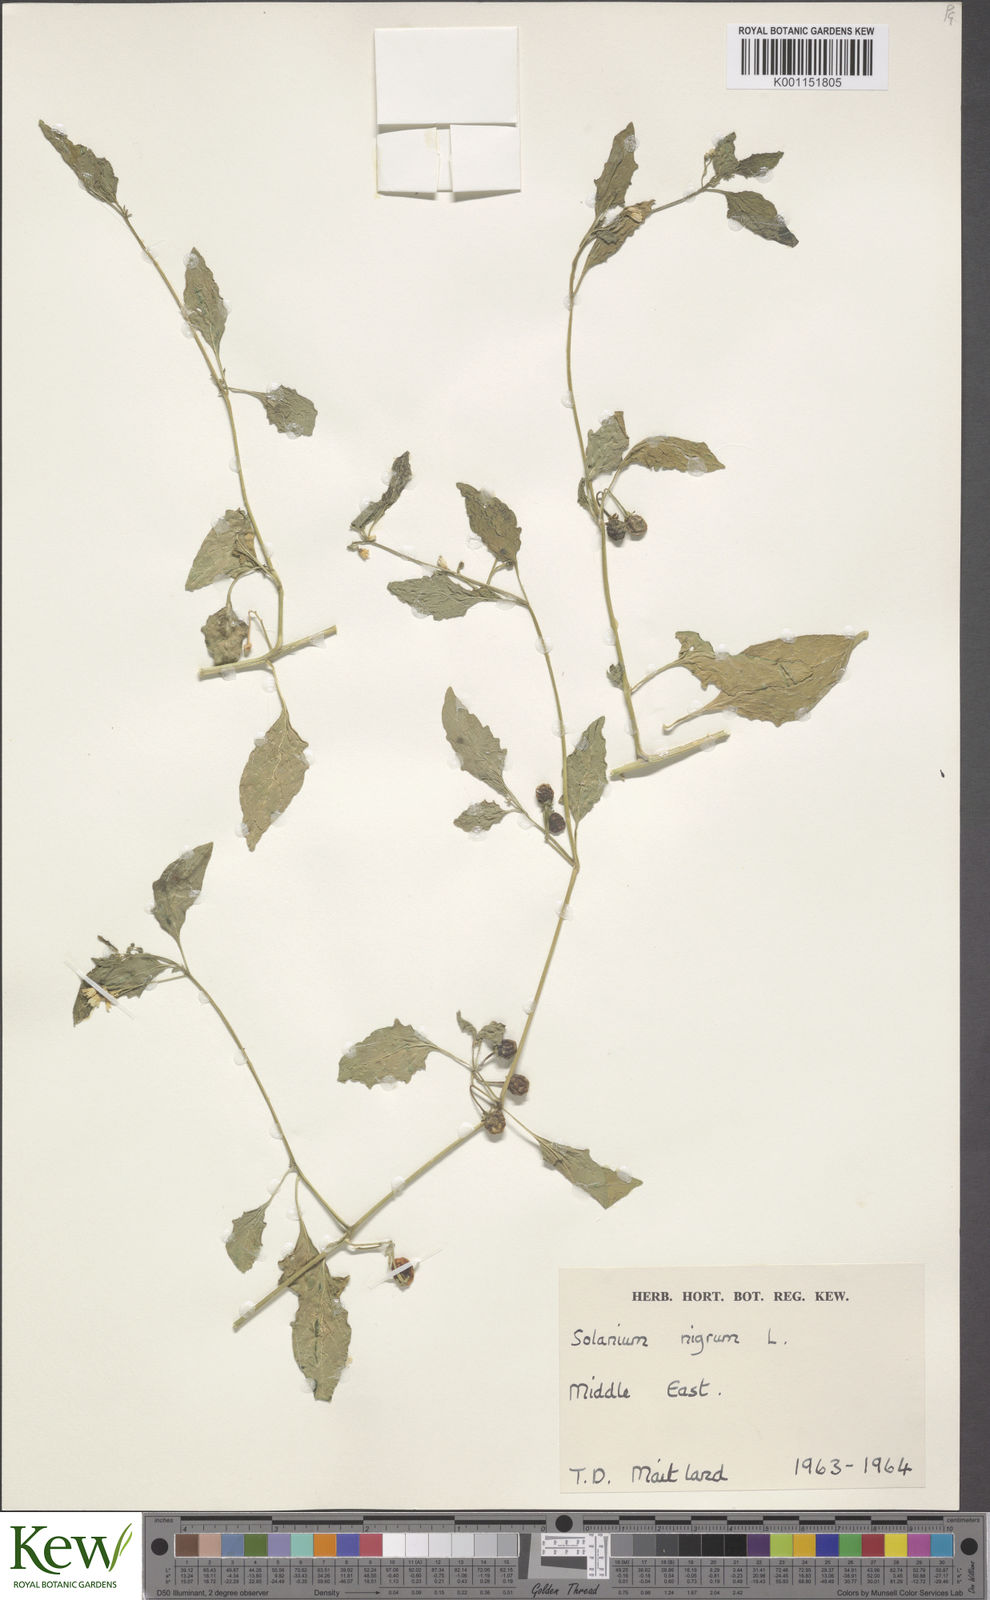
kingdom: Plantae
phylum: Tracheophyta
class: Magnoliopsida
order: Solanales
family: Solanaceae
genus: Solanum
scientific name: Solanum villosum
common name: Red nightshade
